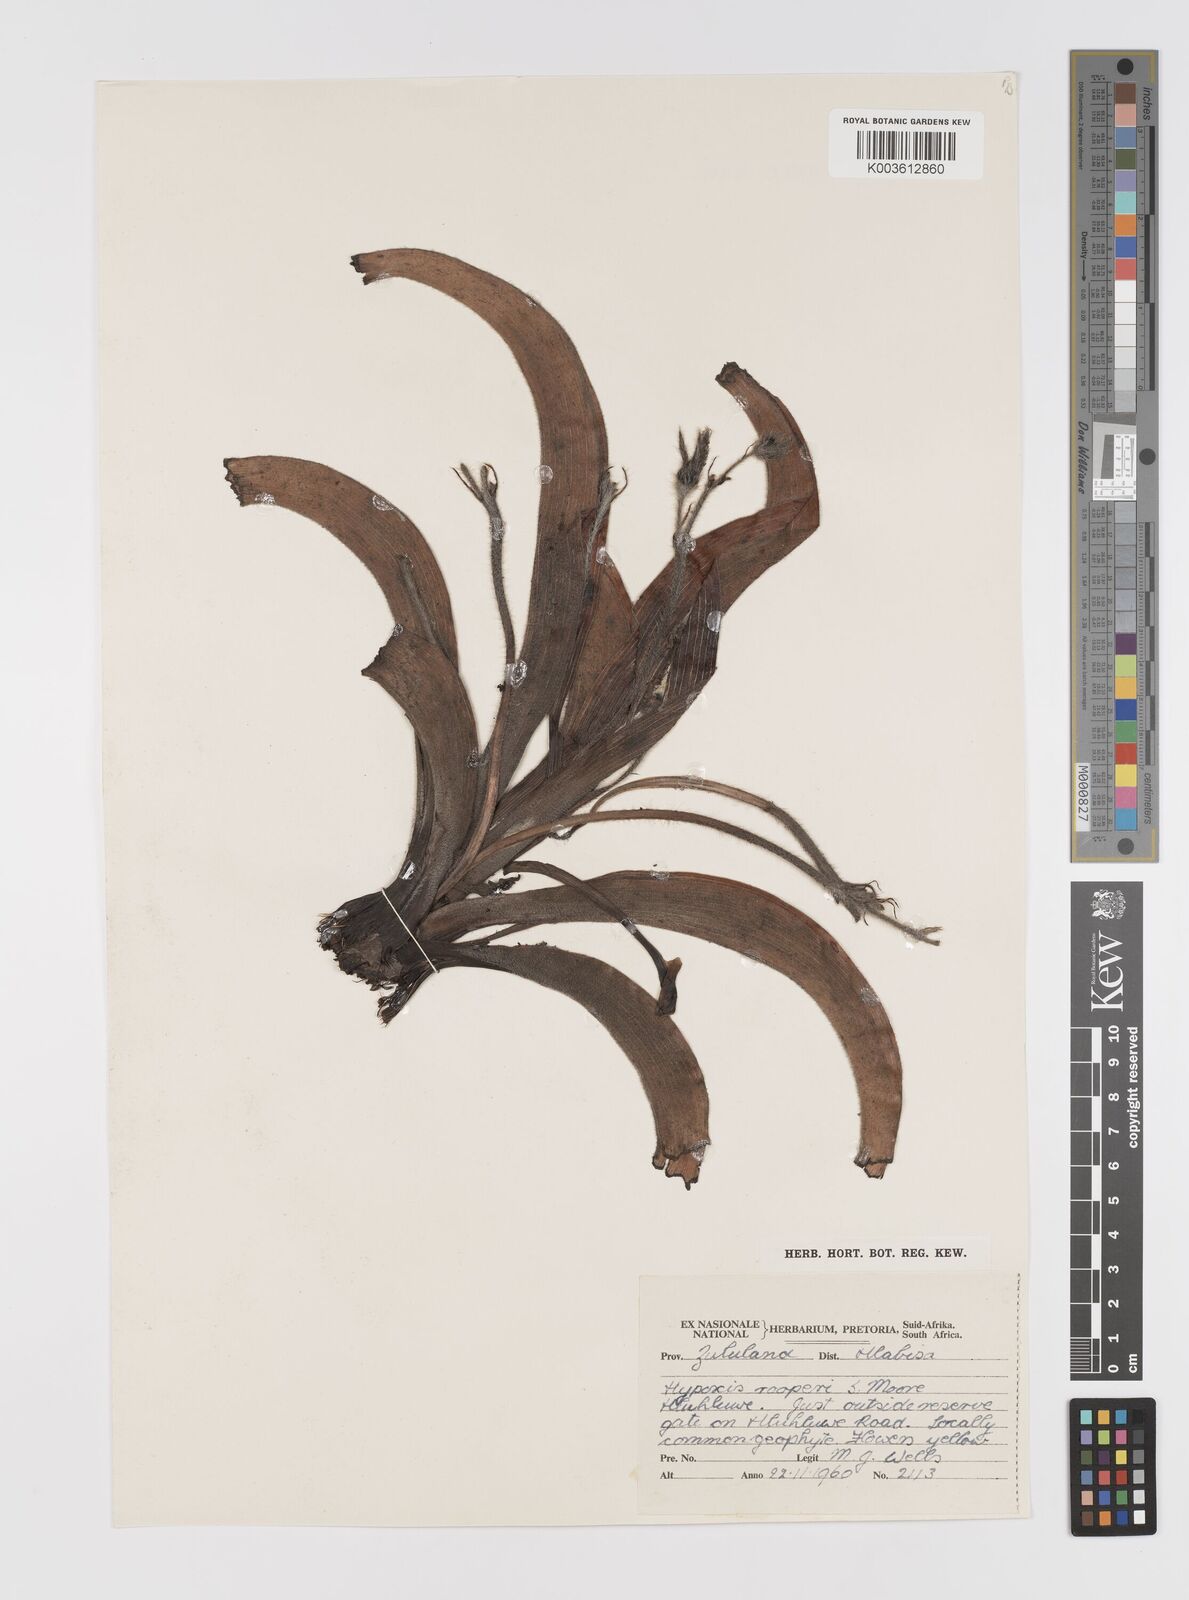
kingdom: Plantae
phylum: Tracheophyta
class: Liliopsida
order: Asparagales
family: Hypoxidaceae
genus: Hypoxis
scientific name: Hypoxis hemerocallidea
